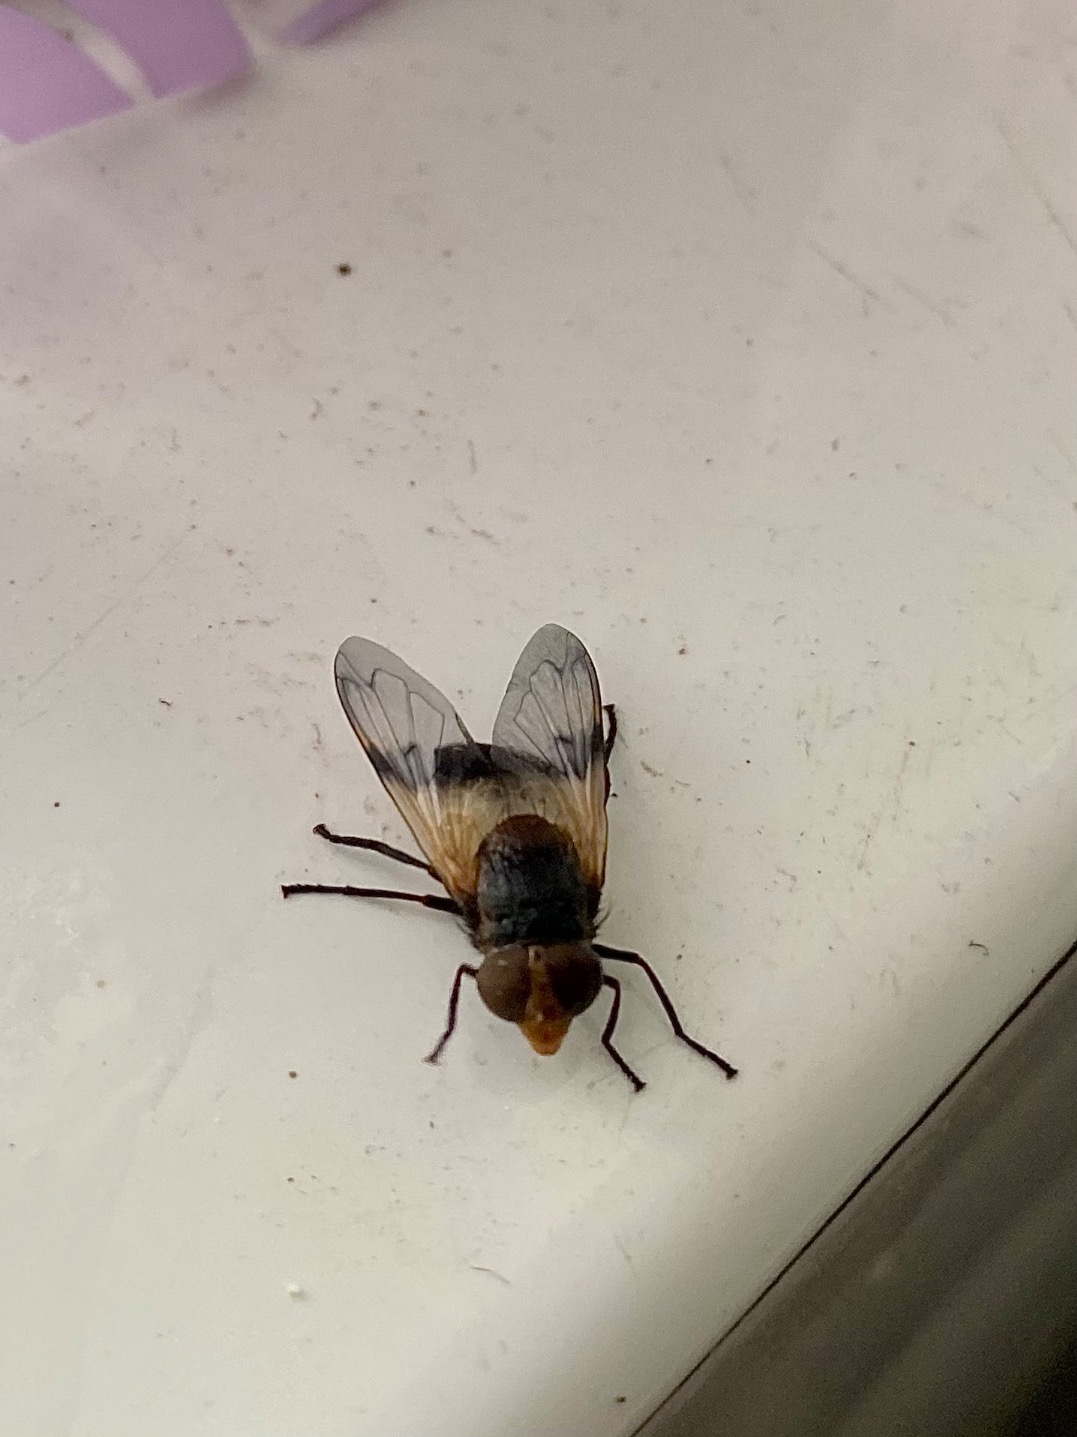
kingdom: Animalia
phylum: Arthropoda
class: Insecta
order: Diptera
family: Syrphidae
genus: Volucella
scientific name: Volucella pellucens
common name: Hvidbåndet humlesvirreflue
